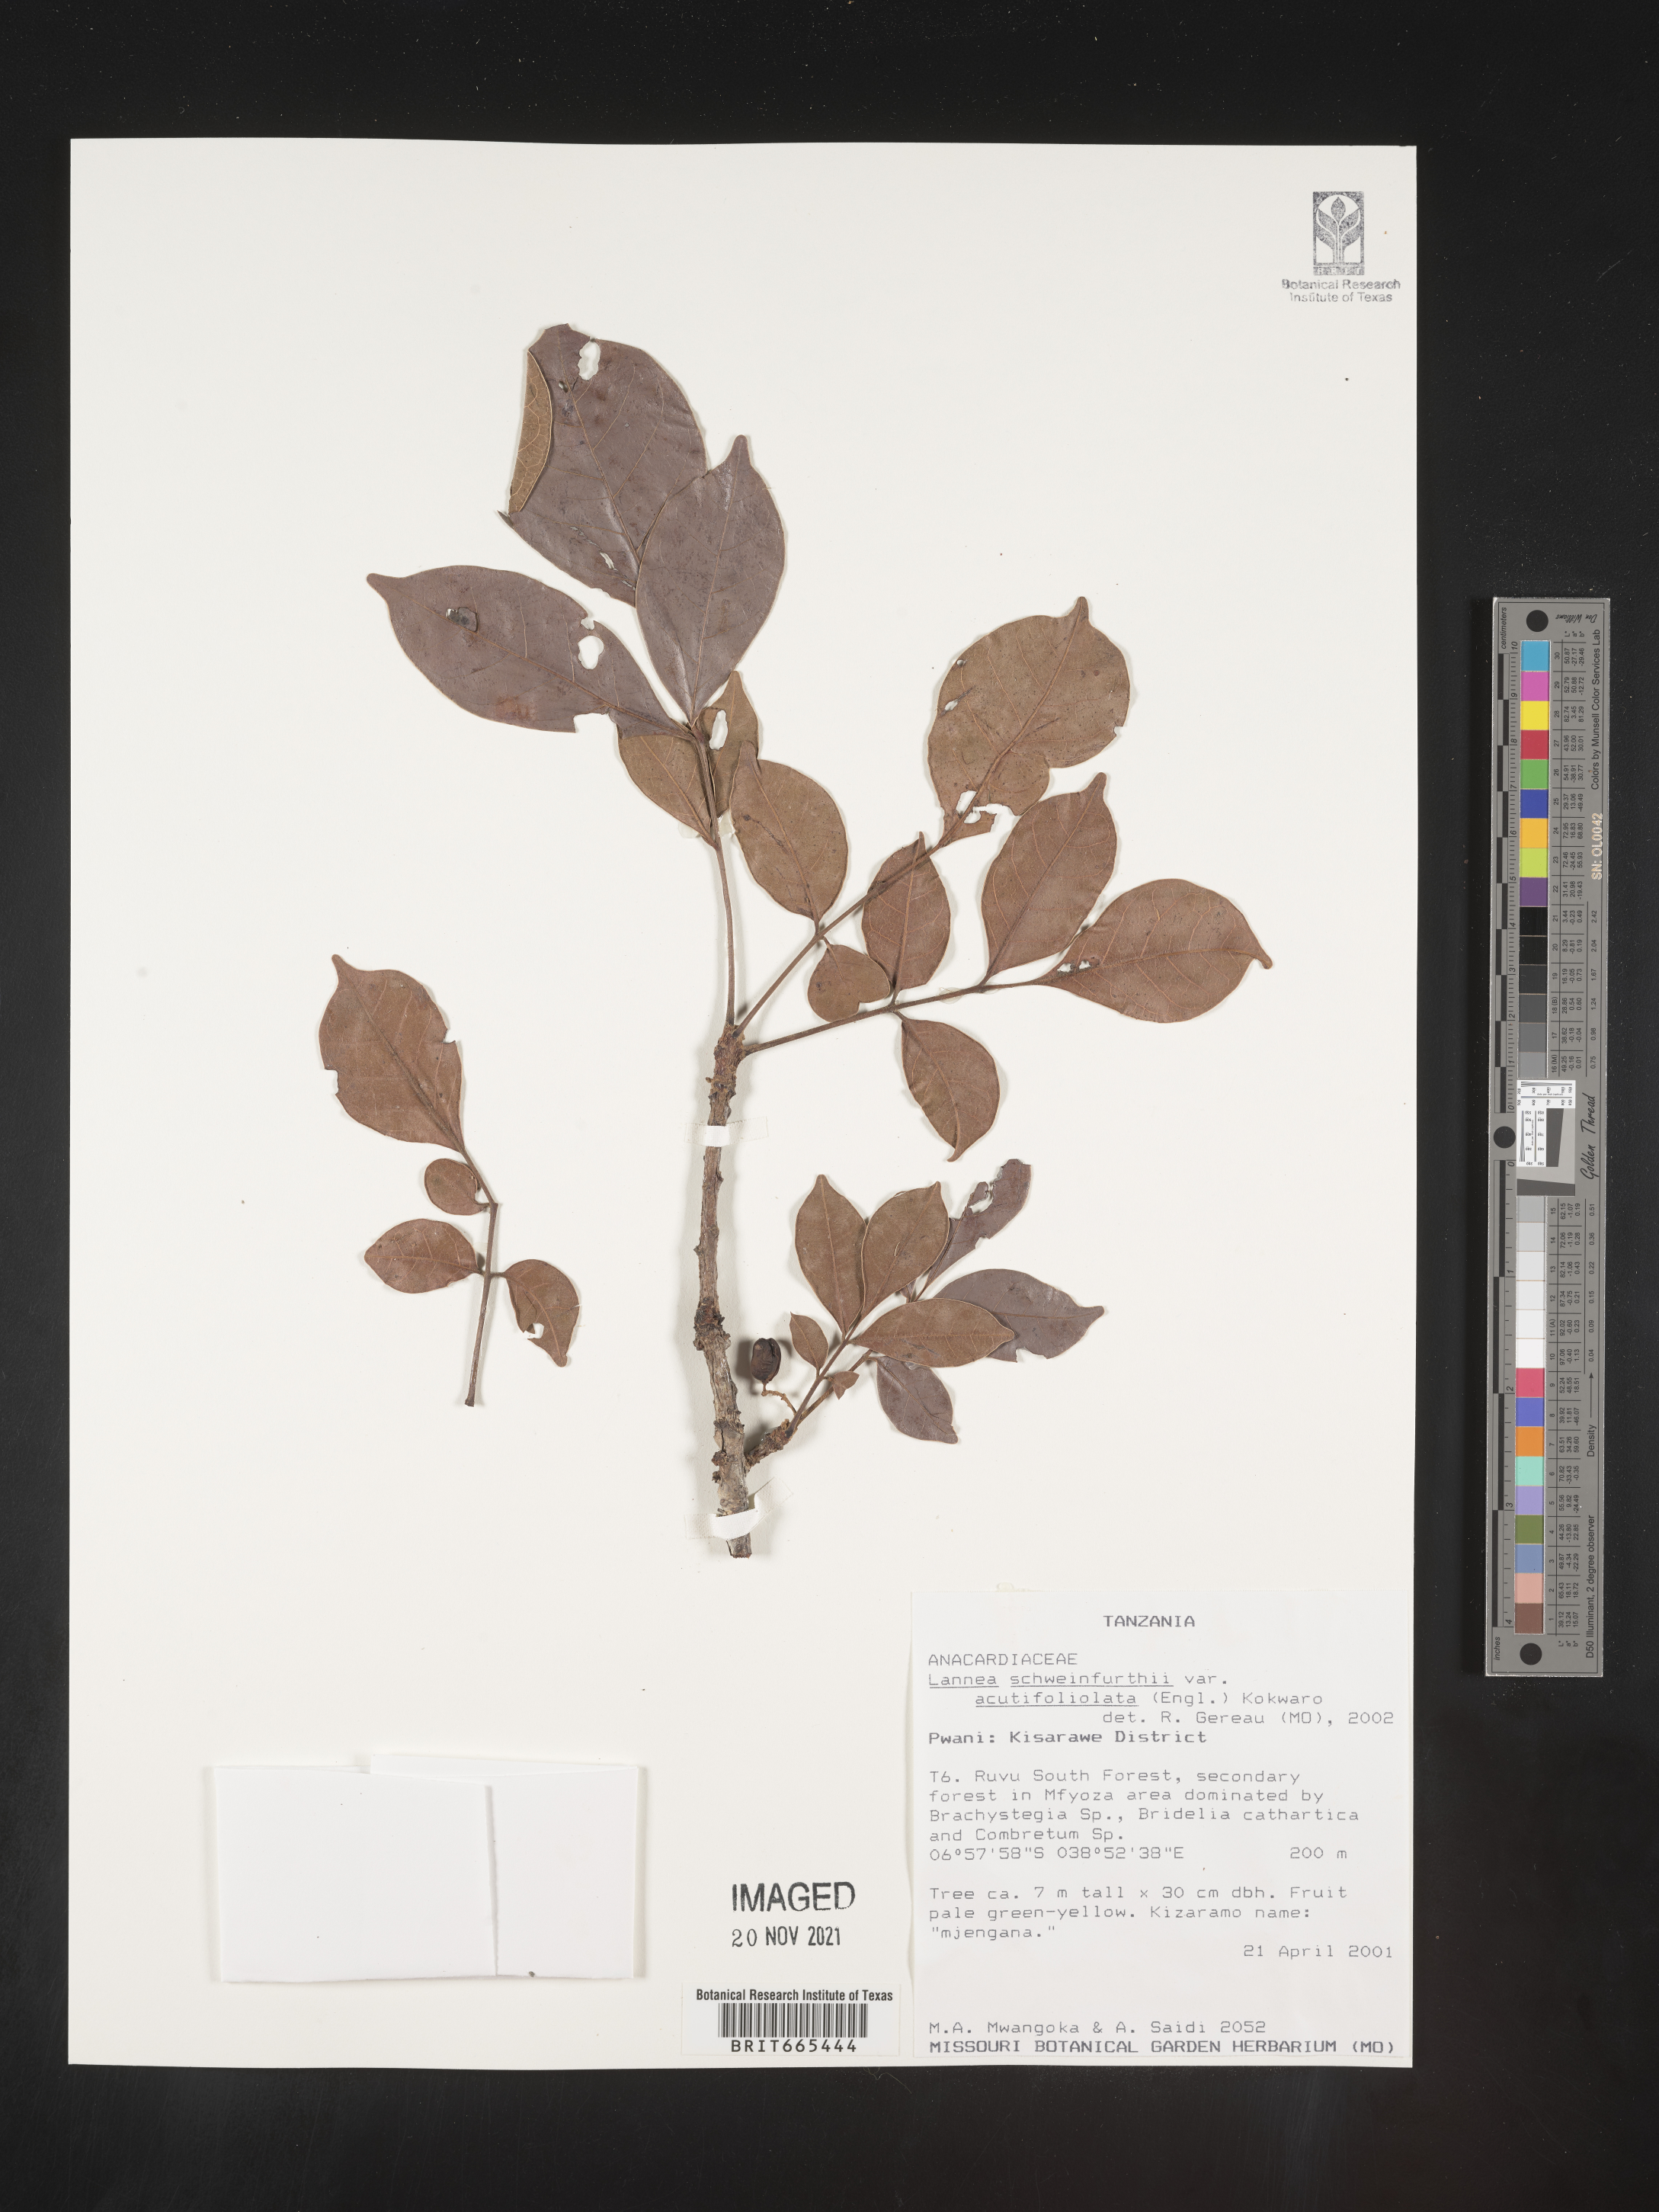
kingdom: Plantae
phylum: Tracheophyta
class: Magnoliopsida
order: Sapindales
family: Anacardiaceae
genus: Lannea
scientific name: Lannea schweinfurthii
